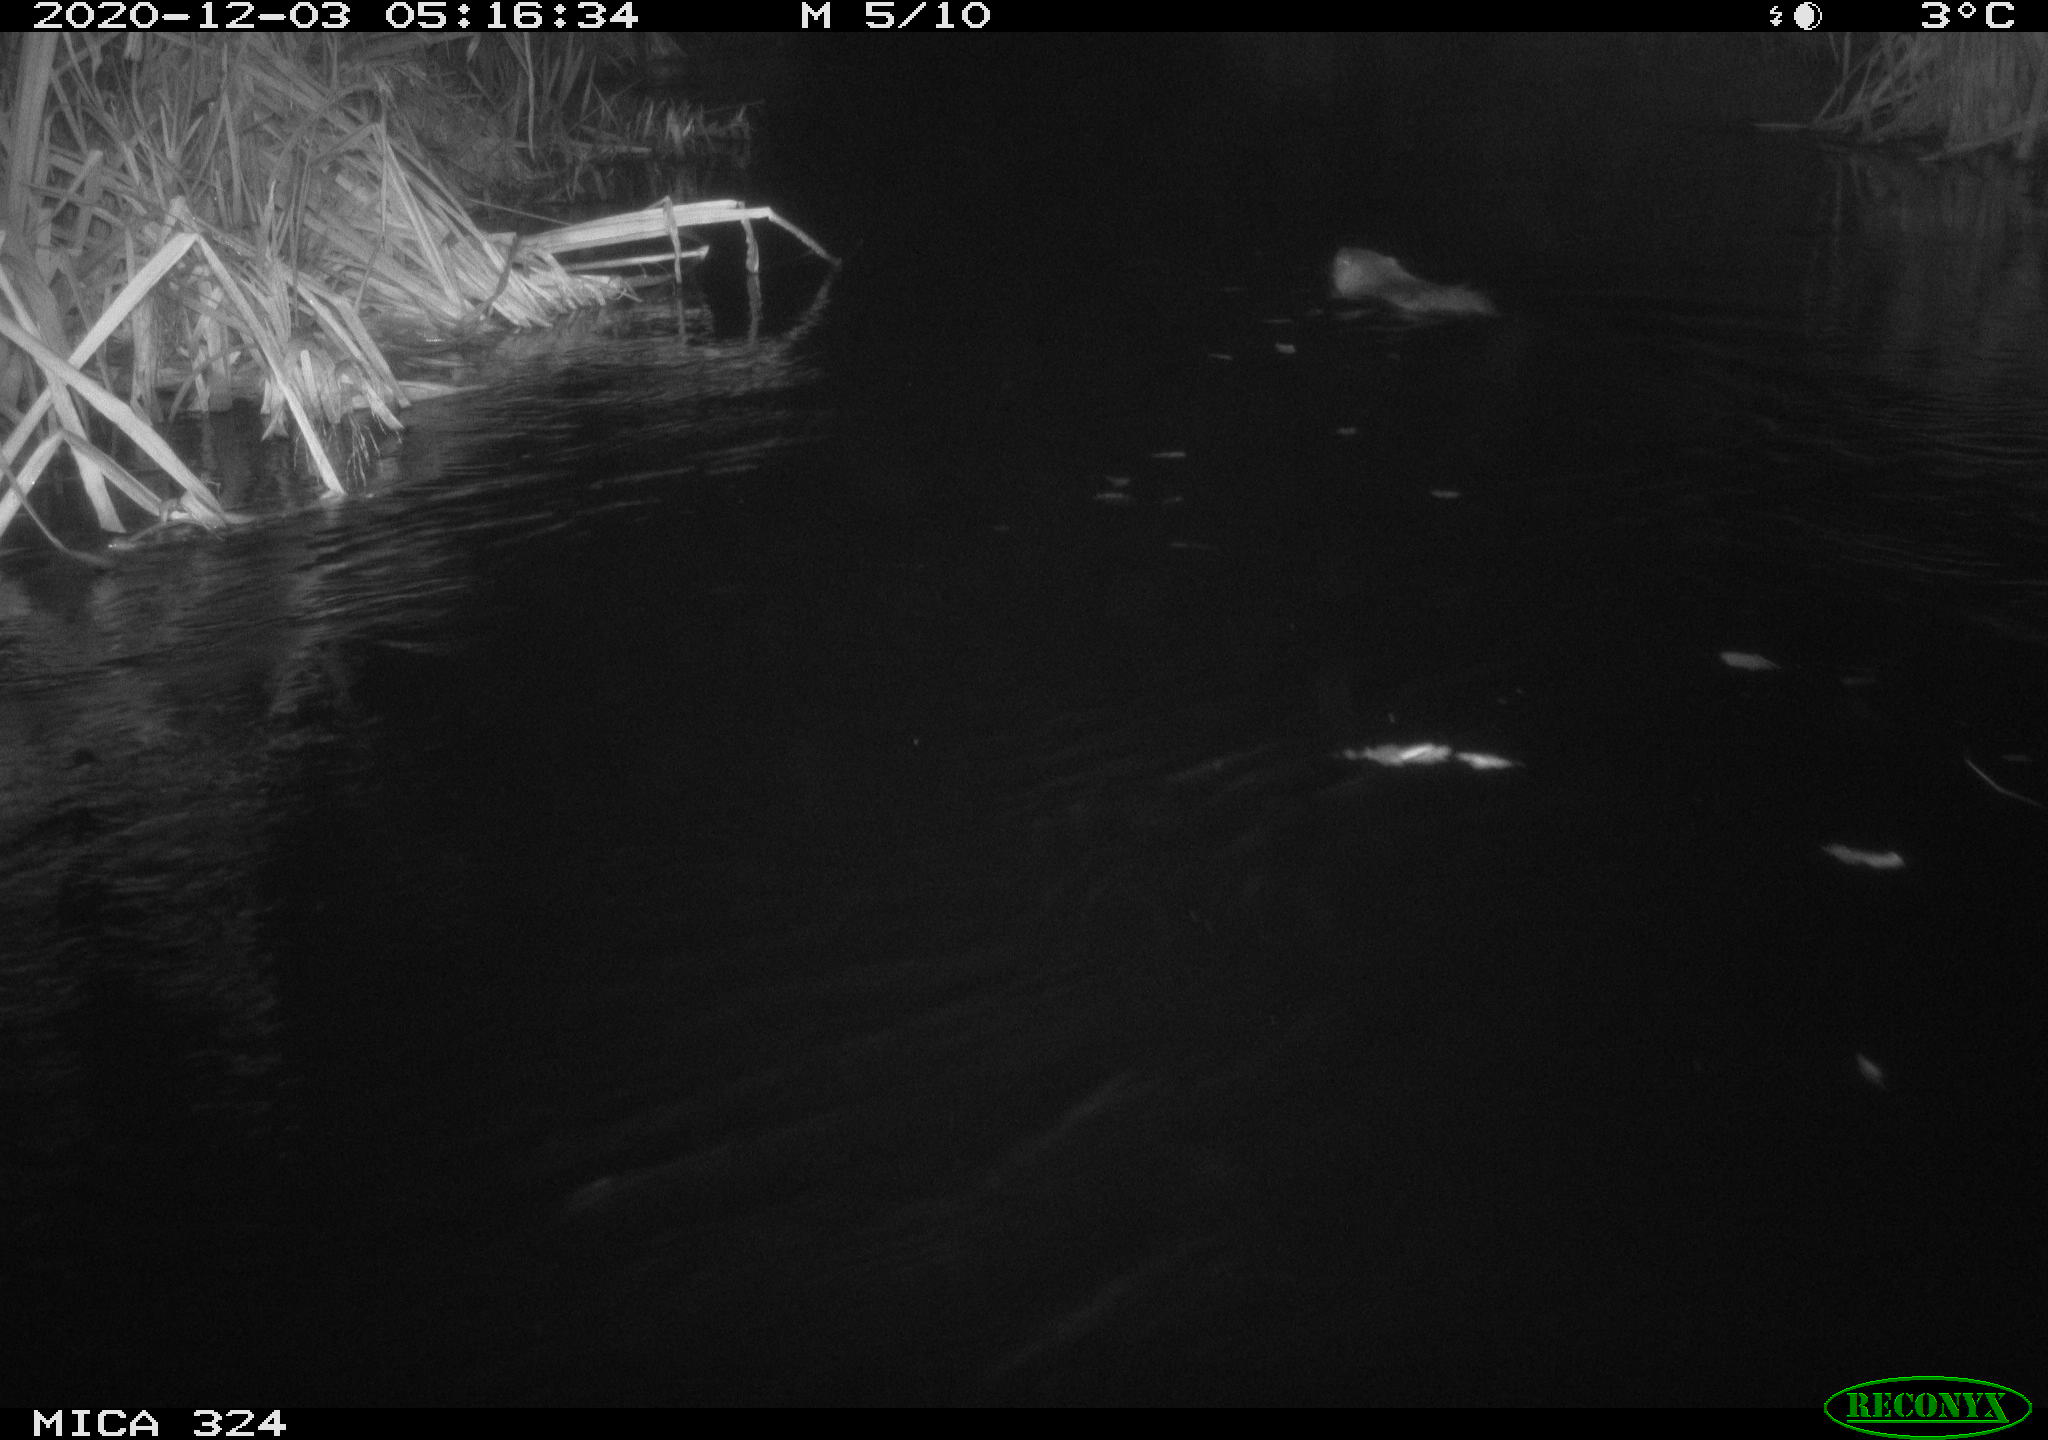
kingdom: Animalia
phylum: Chordata
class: Mammalia
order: Rodentia
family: Myocastoridae
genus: Myocastor
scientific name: Myocastor coypus
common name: Coypu
